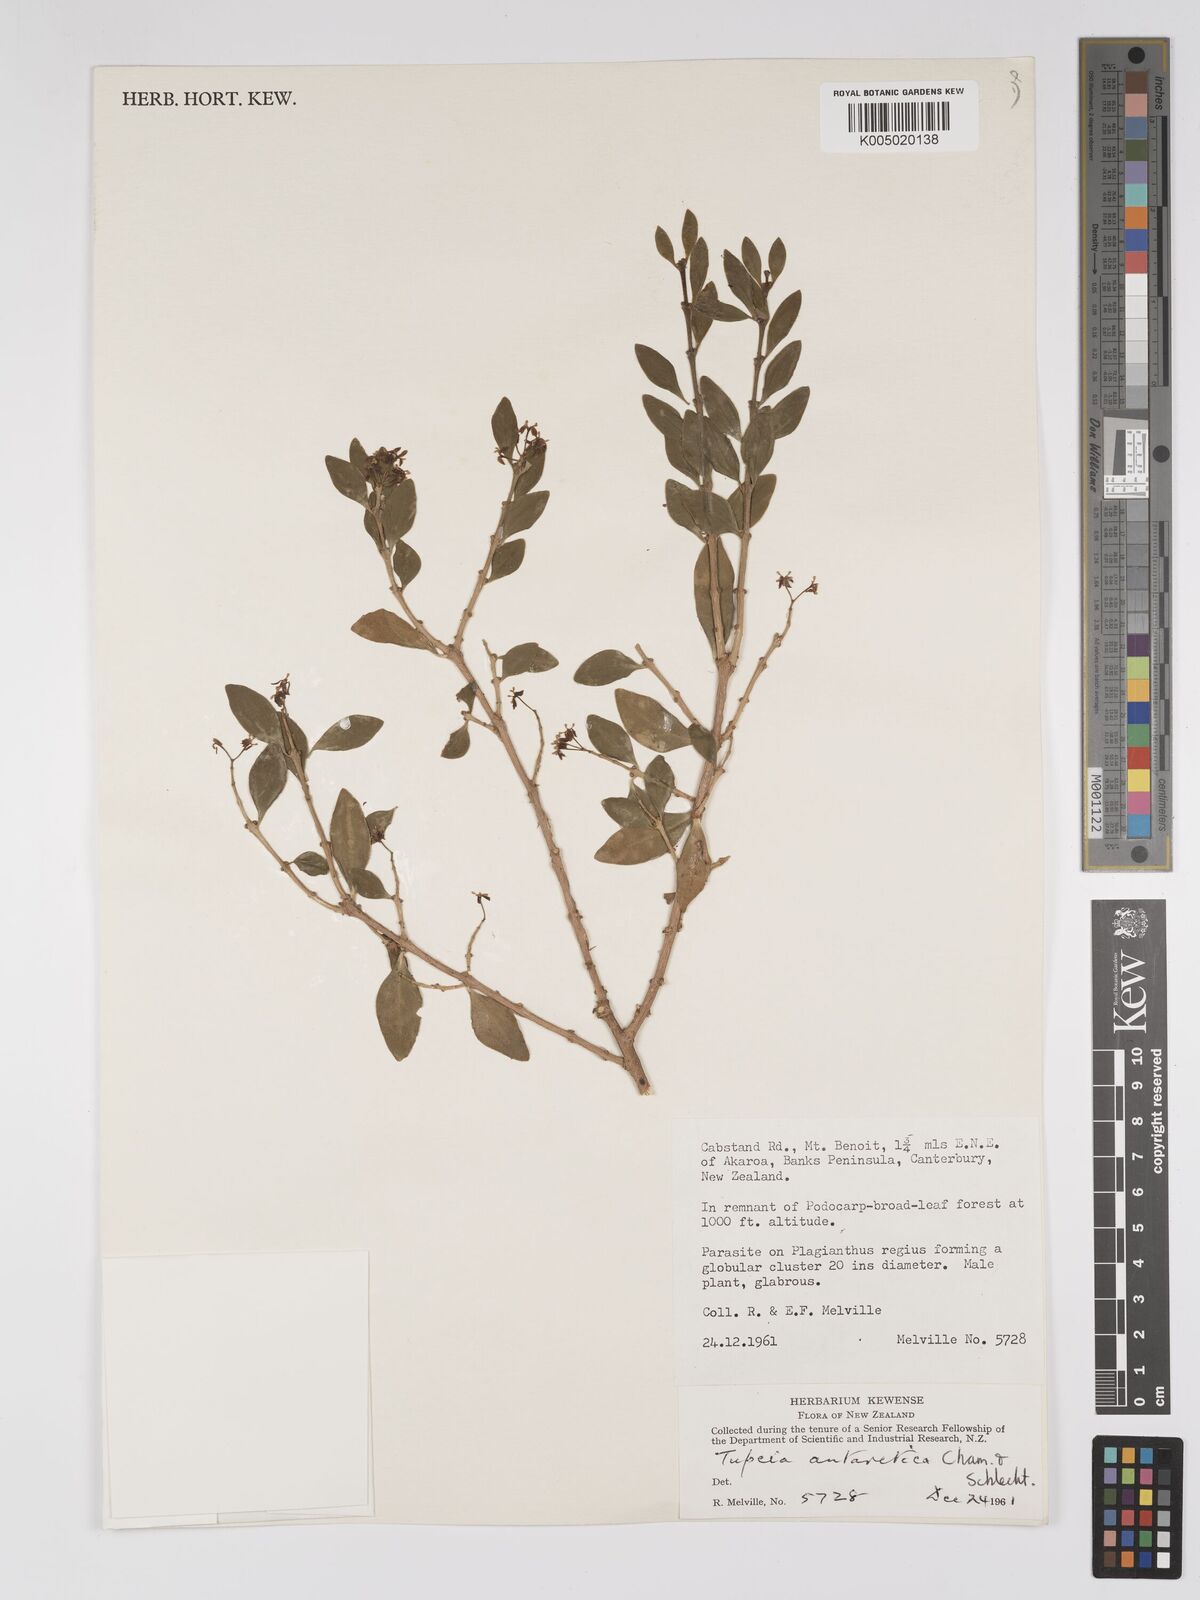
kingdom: Plantae
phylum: Tracheophyta
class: Magnoliopsida
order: Santalales
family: Loranthaceae
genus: Tupeia
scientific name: Tupeia antarctica
